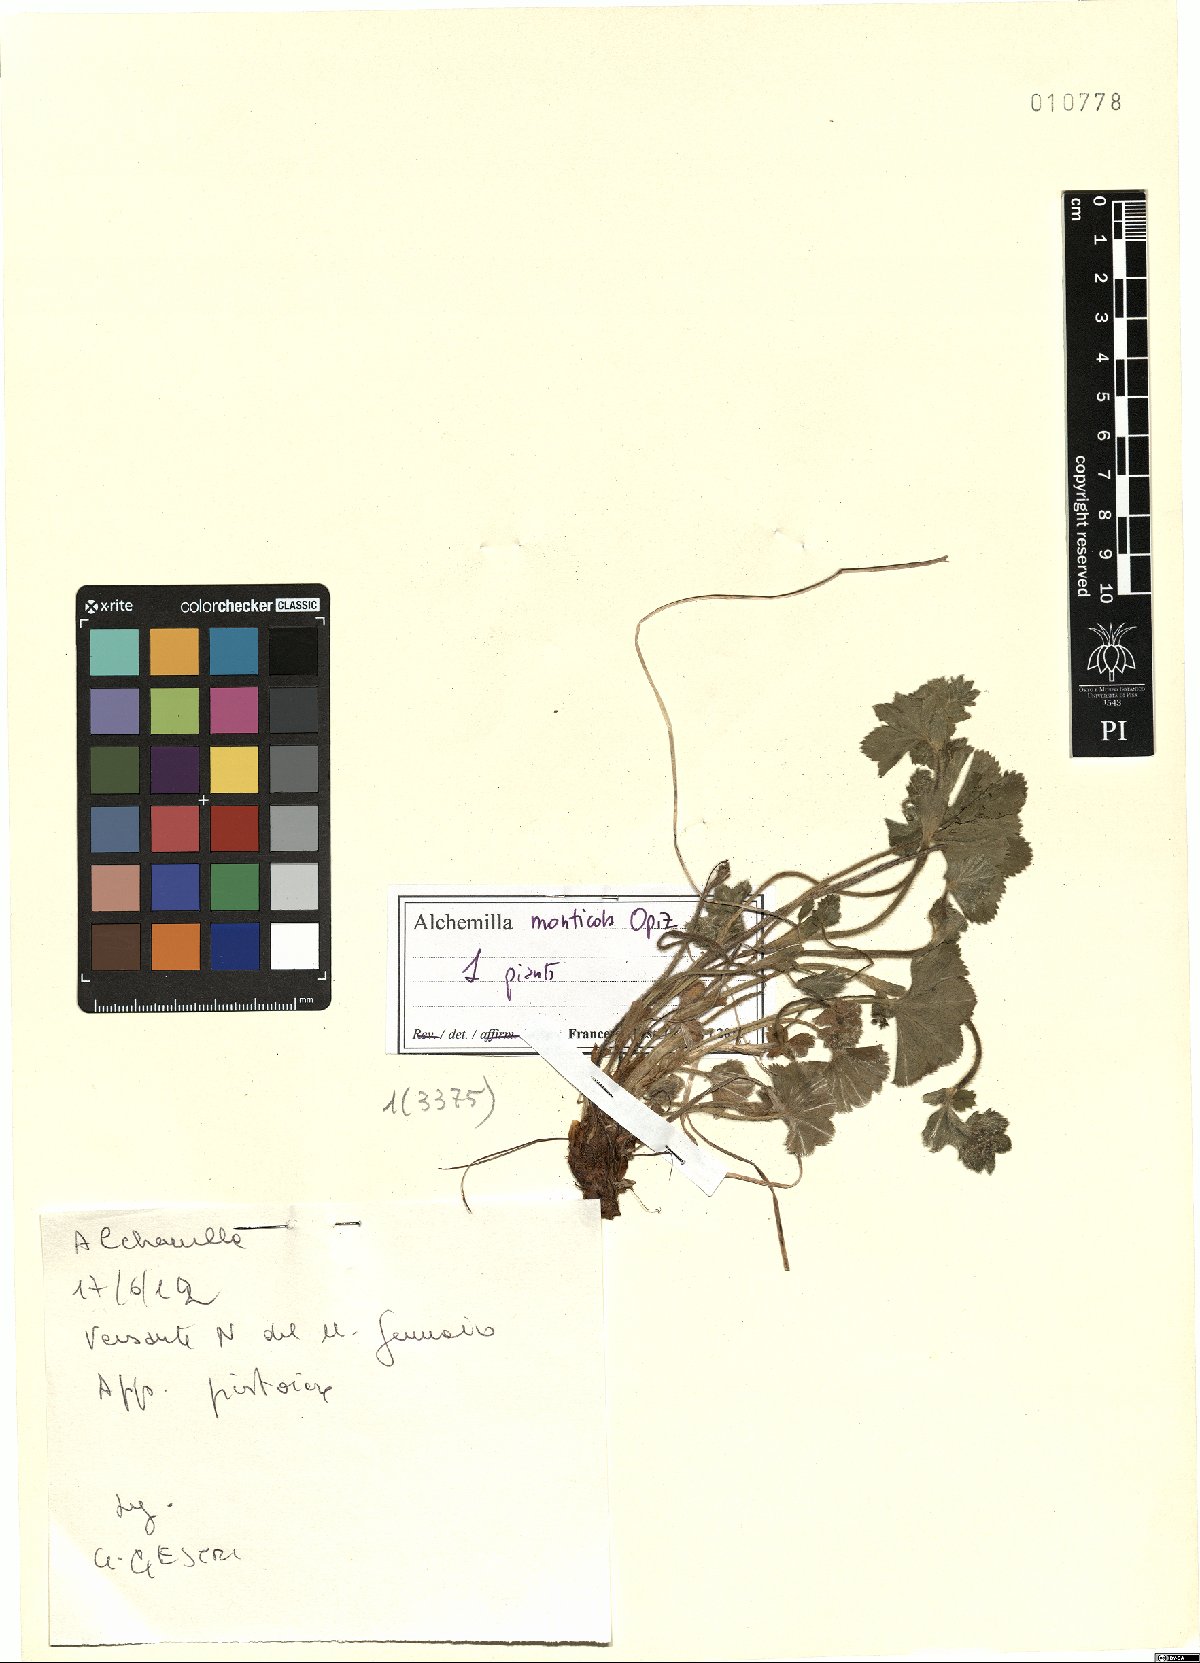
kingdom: Plantae
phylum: Tracheophyta
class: Magnoliopsida
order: Rosales
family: Rosaceae
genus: Alchemilla
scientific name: Alchemilla monticola
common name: Hairy lady's mantle
